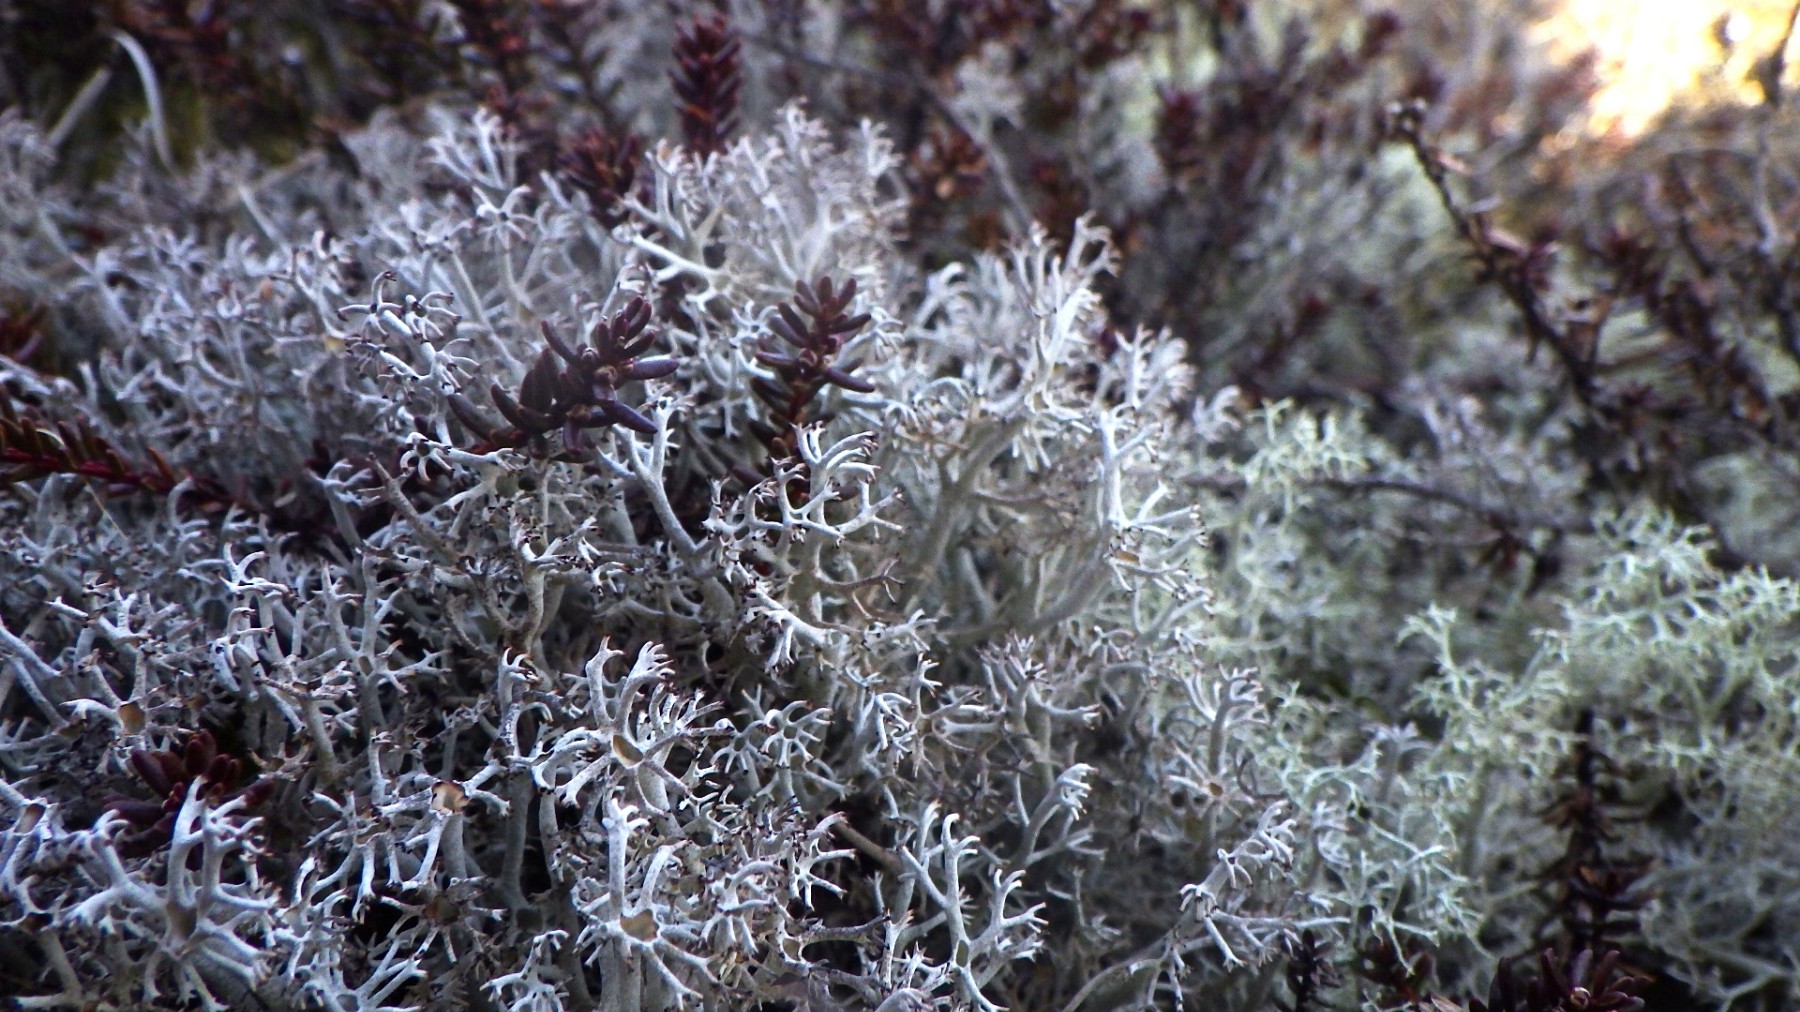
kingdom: Fungi
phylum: Ascomycota
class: Lecanoromycetes
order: Lecanorales
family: Cladoniaceae
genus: Cladonia
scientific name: Cladonia rangiferina
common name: askegrå rensdyrlav
